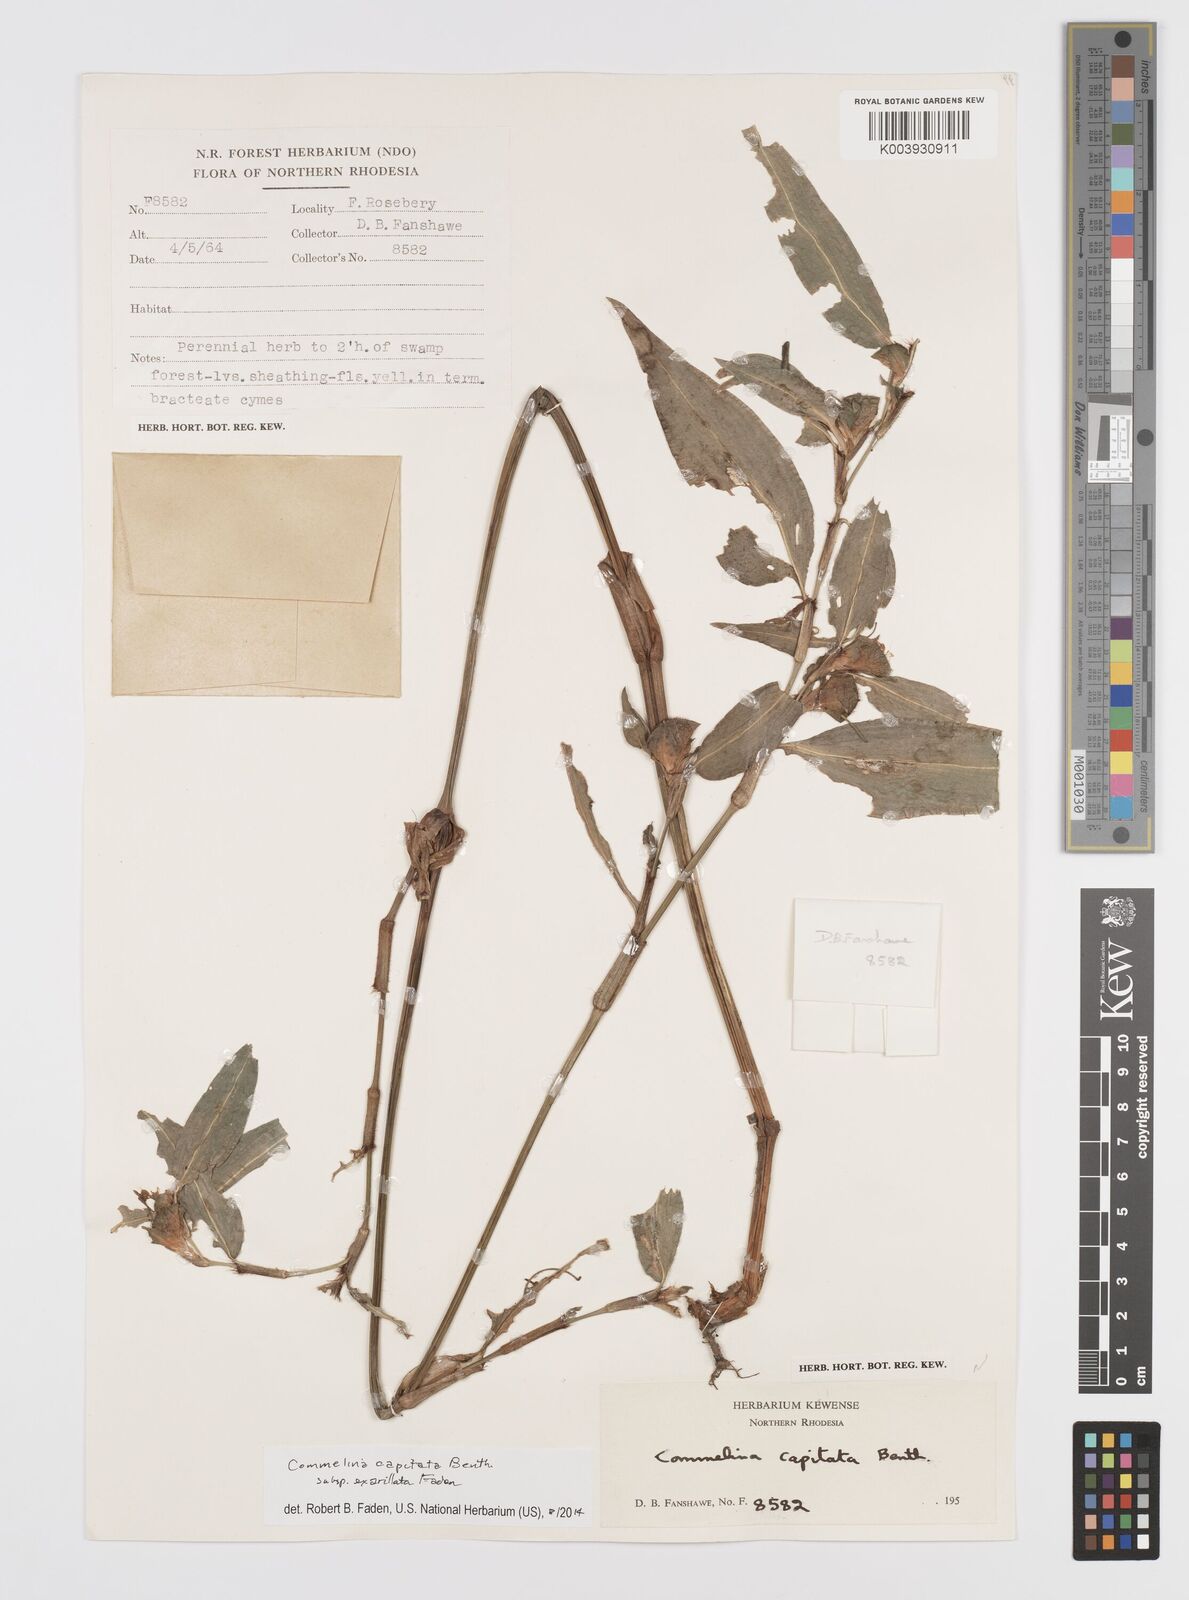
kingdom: Plantae
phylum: Tracheophyta
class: Liliopsida
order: Commelinales
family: Commelinaceae
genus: Commelina
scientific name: Commelina capitata
